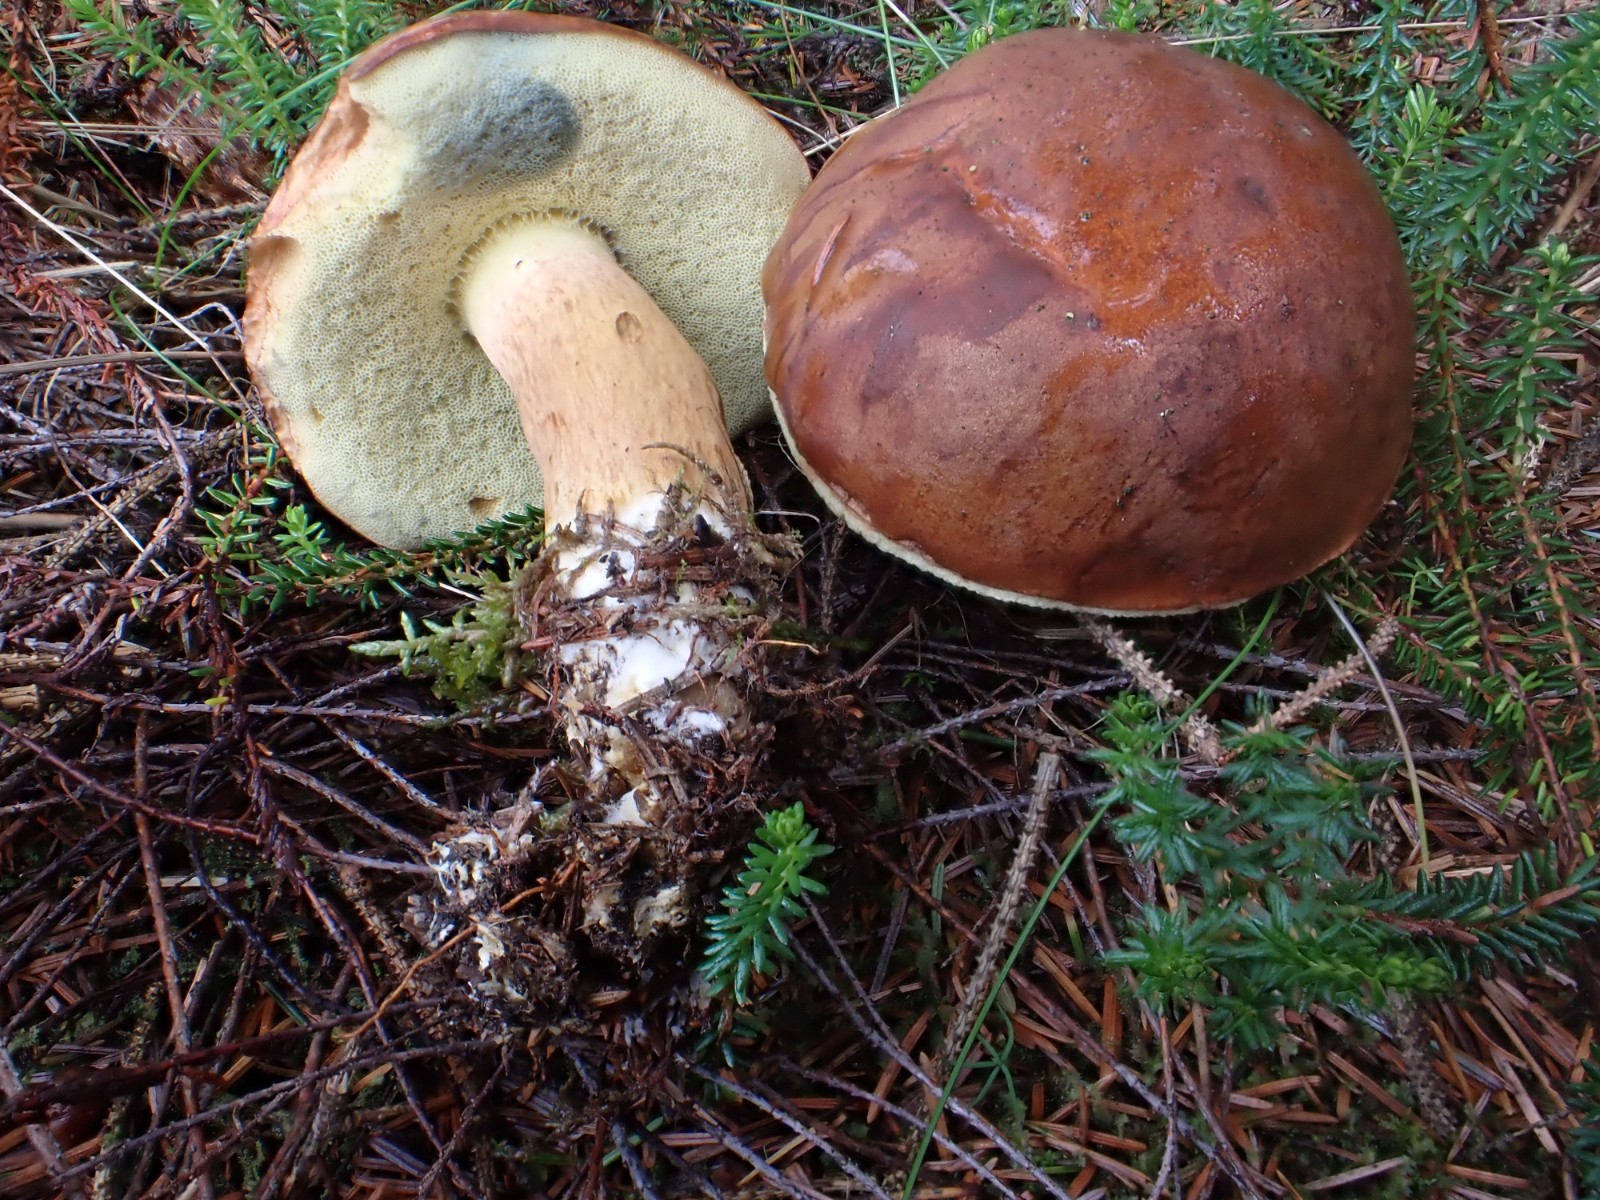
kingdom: Fungi
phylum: Basidiomycota
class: Agaricomycetes
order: Boletales
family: Boletaceae
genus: Imleria
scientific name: Imleria badia
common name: brunstokket rørhat
